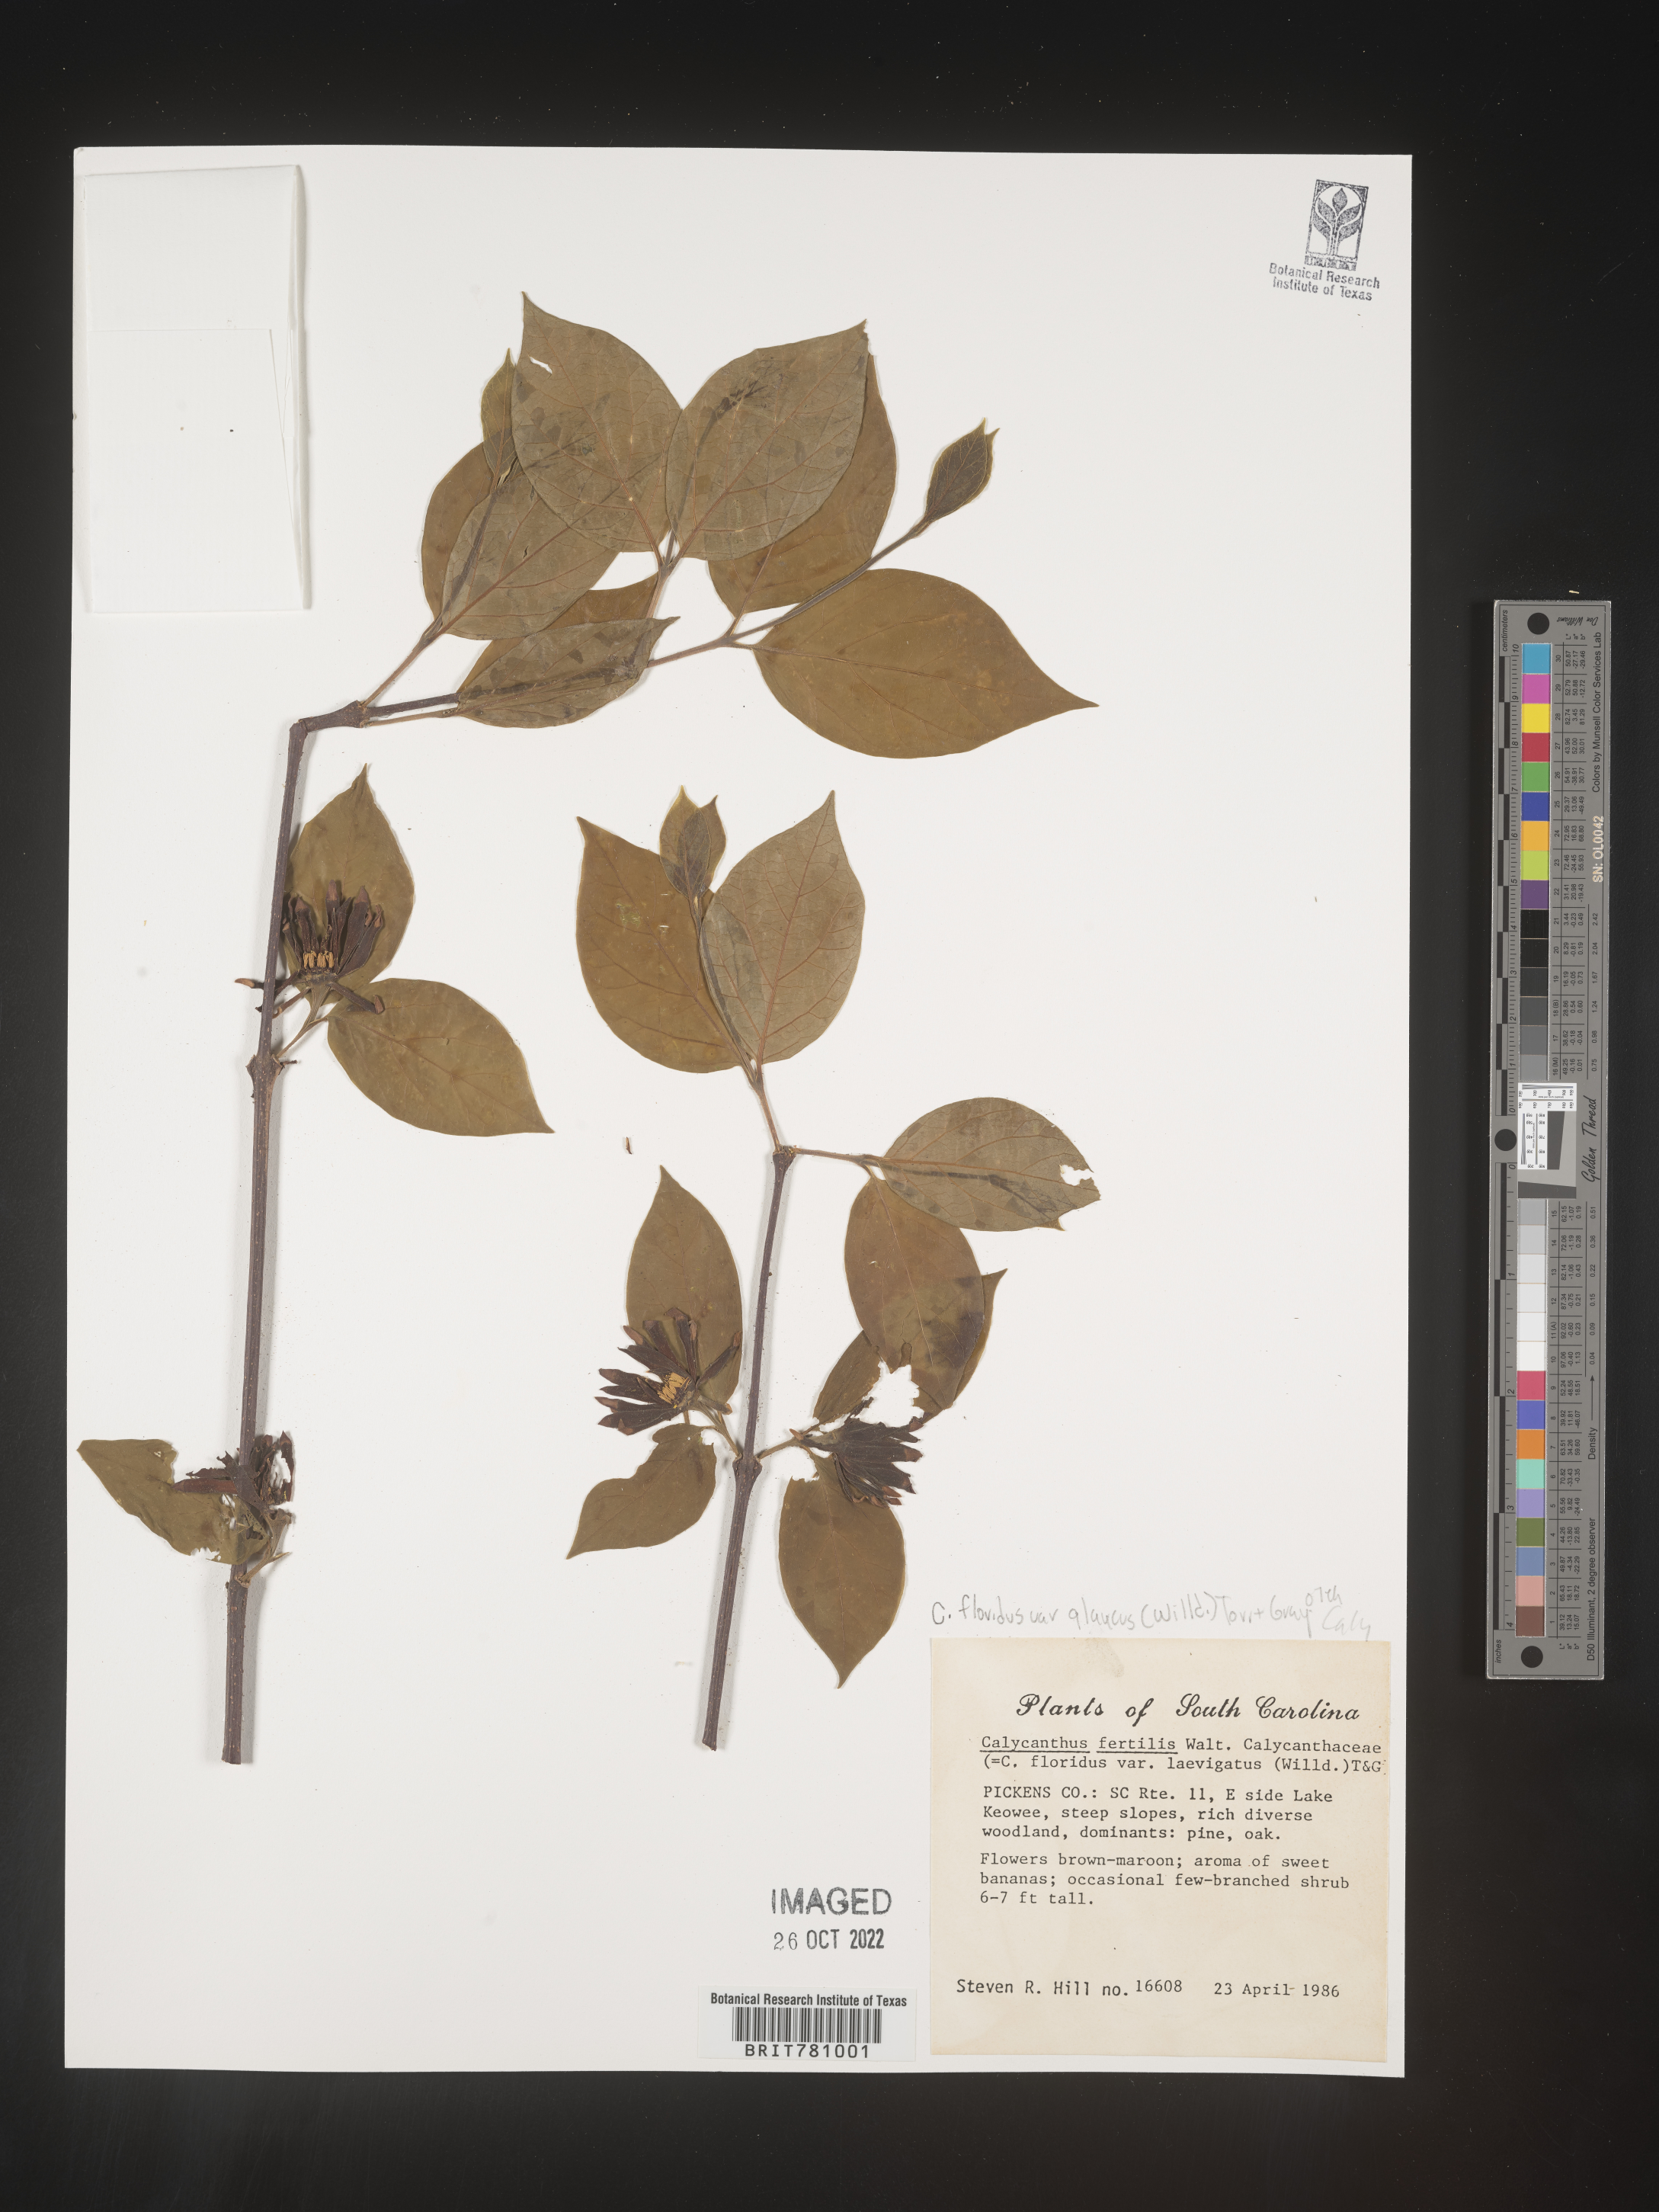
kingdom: Plantae
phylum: Tracheophyta
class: Magnoliopsida
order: Laurales
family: Calycanthaceae
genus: Calycanthus
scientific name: Calycanthus floridus
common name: Carolina-allspice
